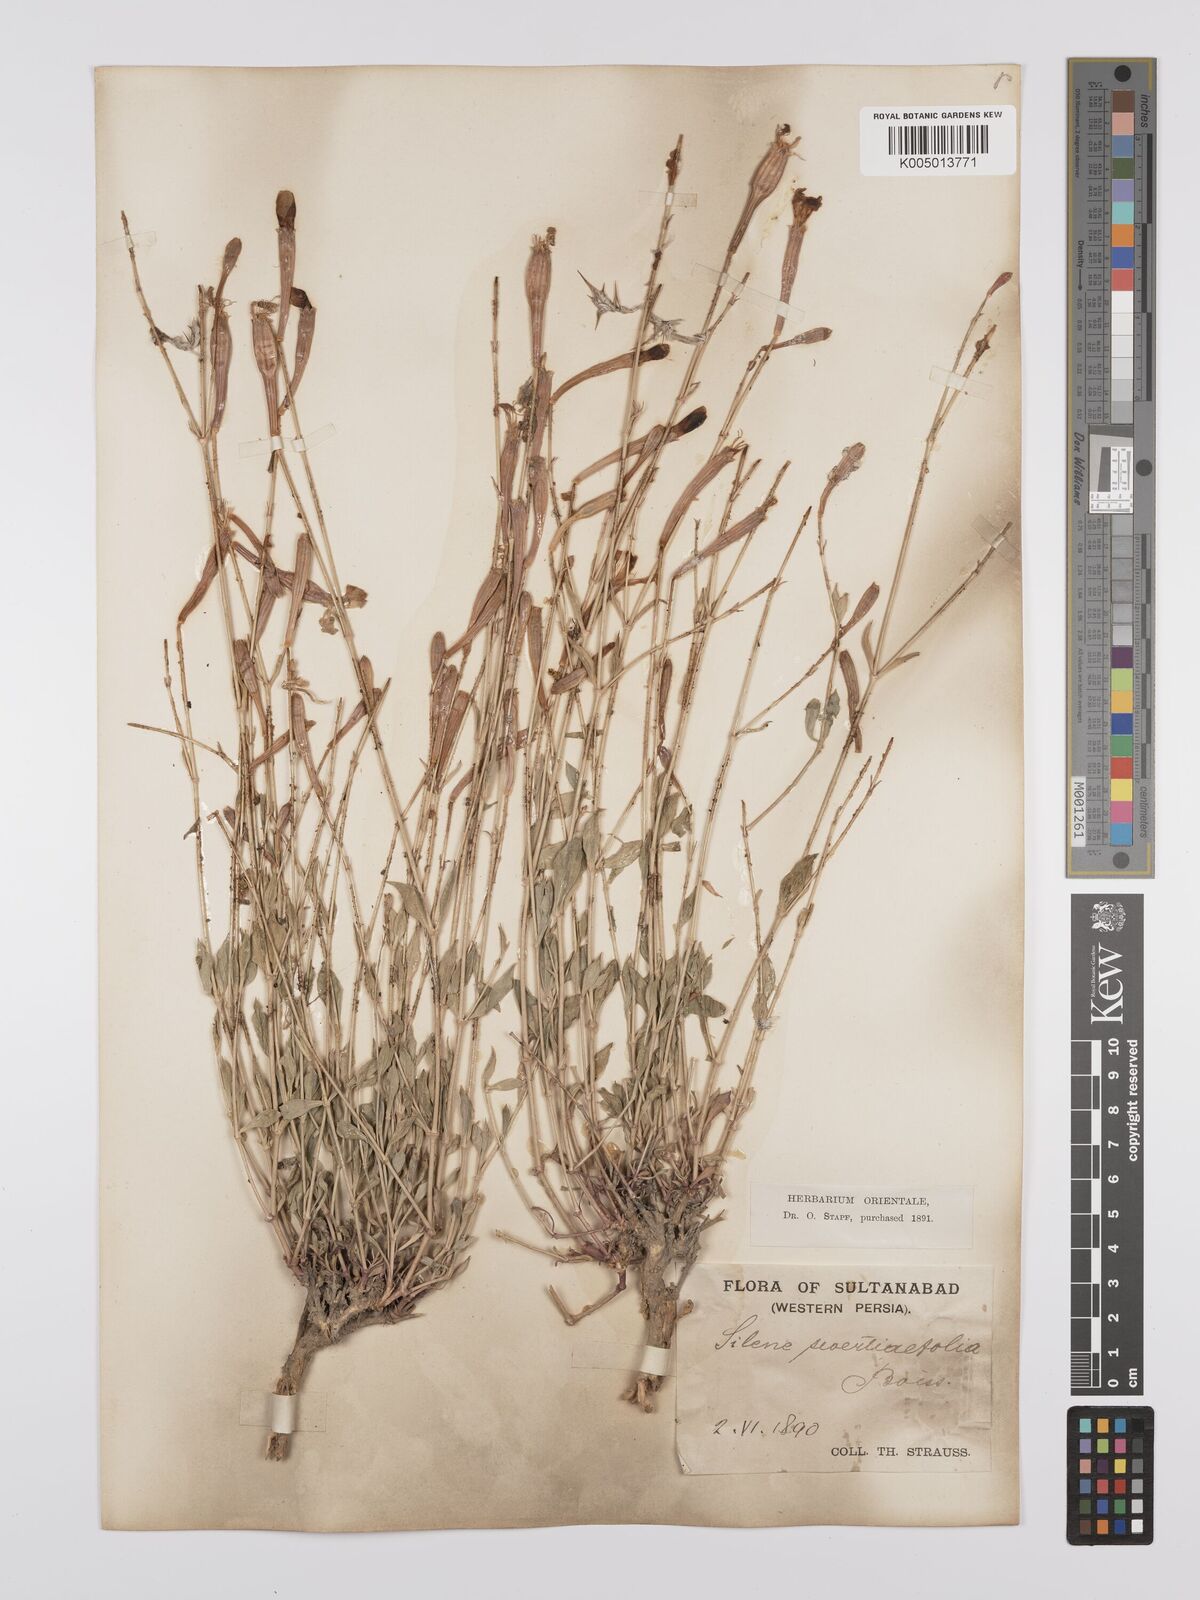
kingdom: Plantae
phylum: Tracheophyta
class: Magnoliopsida
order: Caryophyllales
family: Caryophyllaceae
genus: Silene
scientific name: Silene swertiifolia
